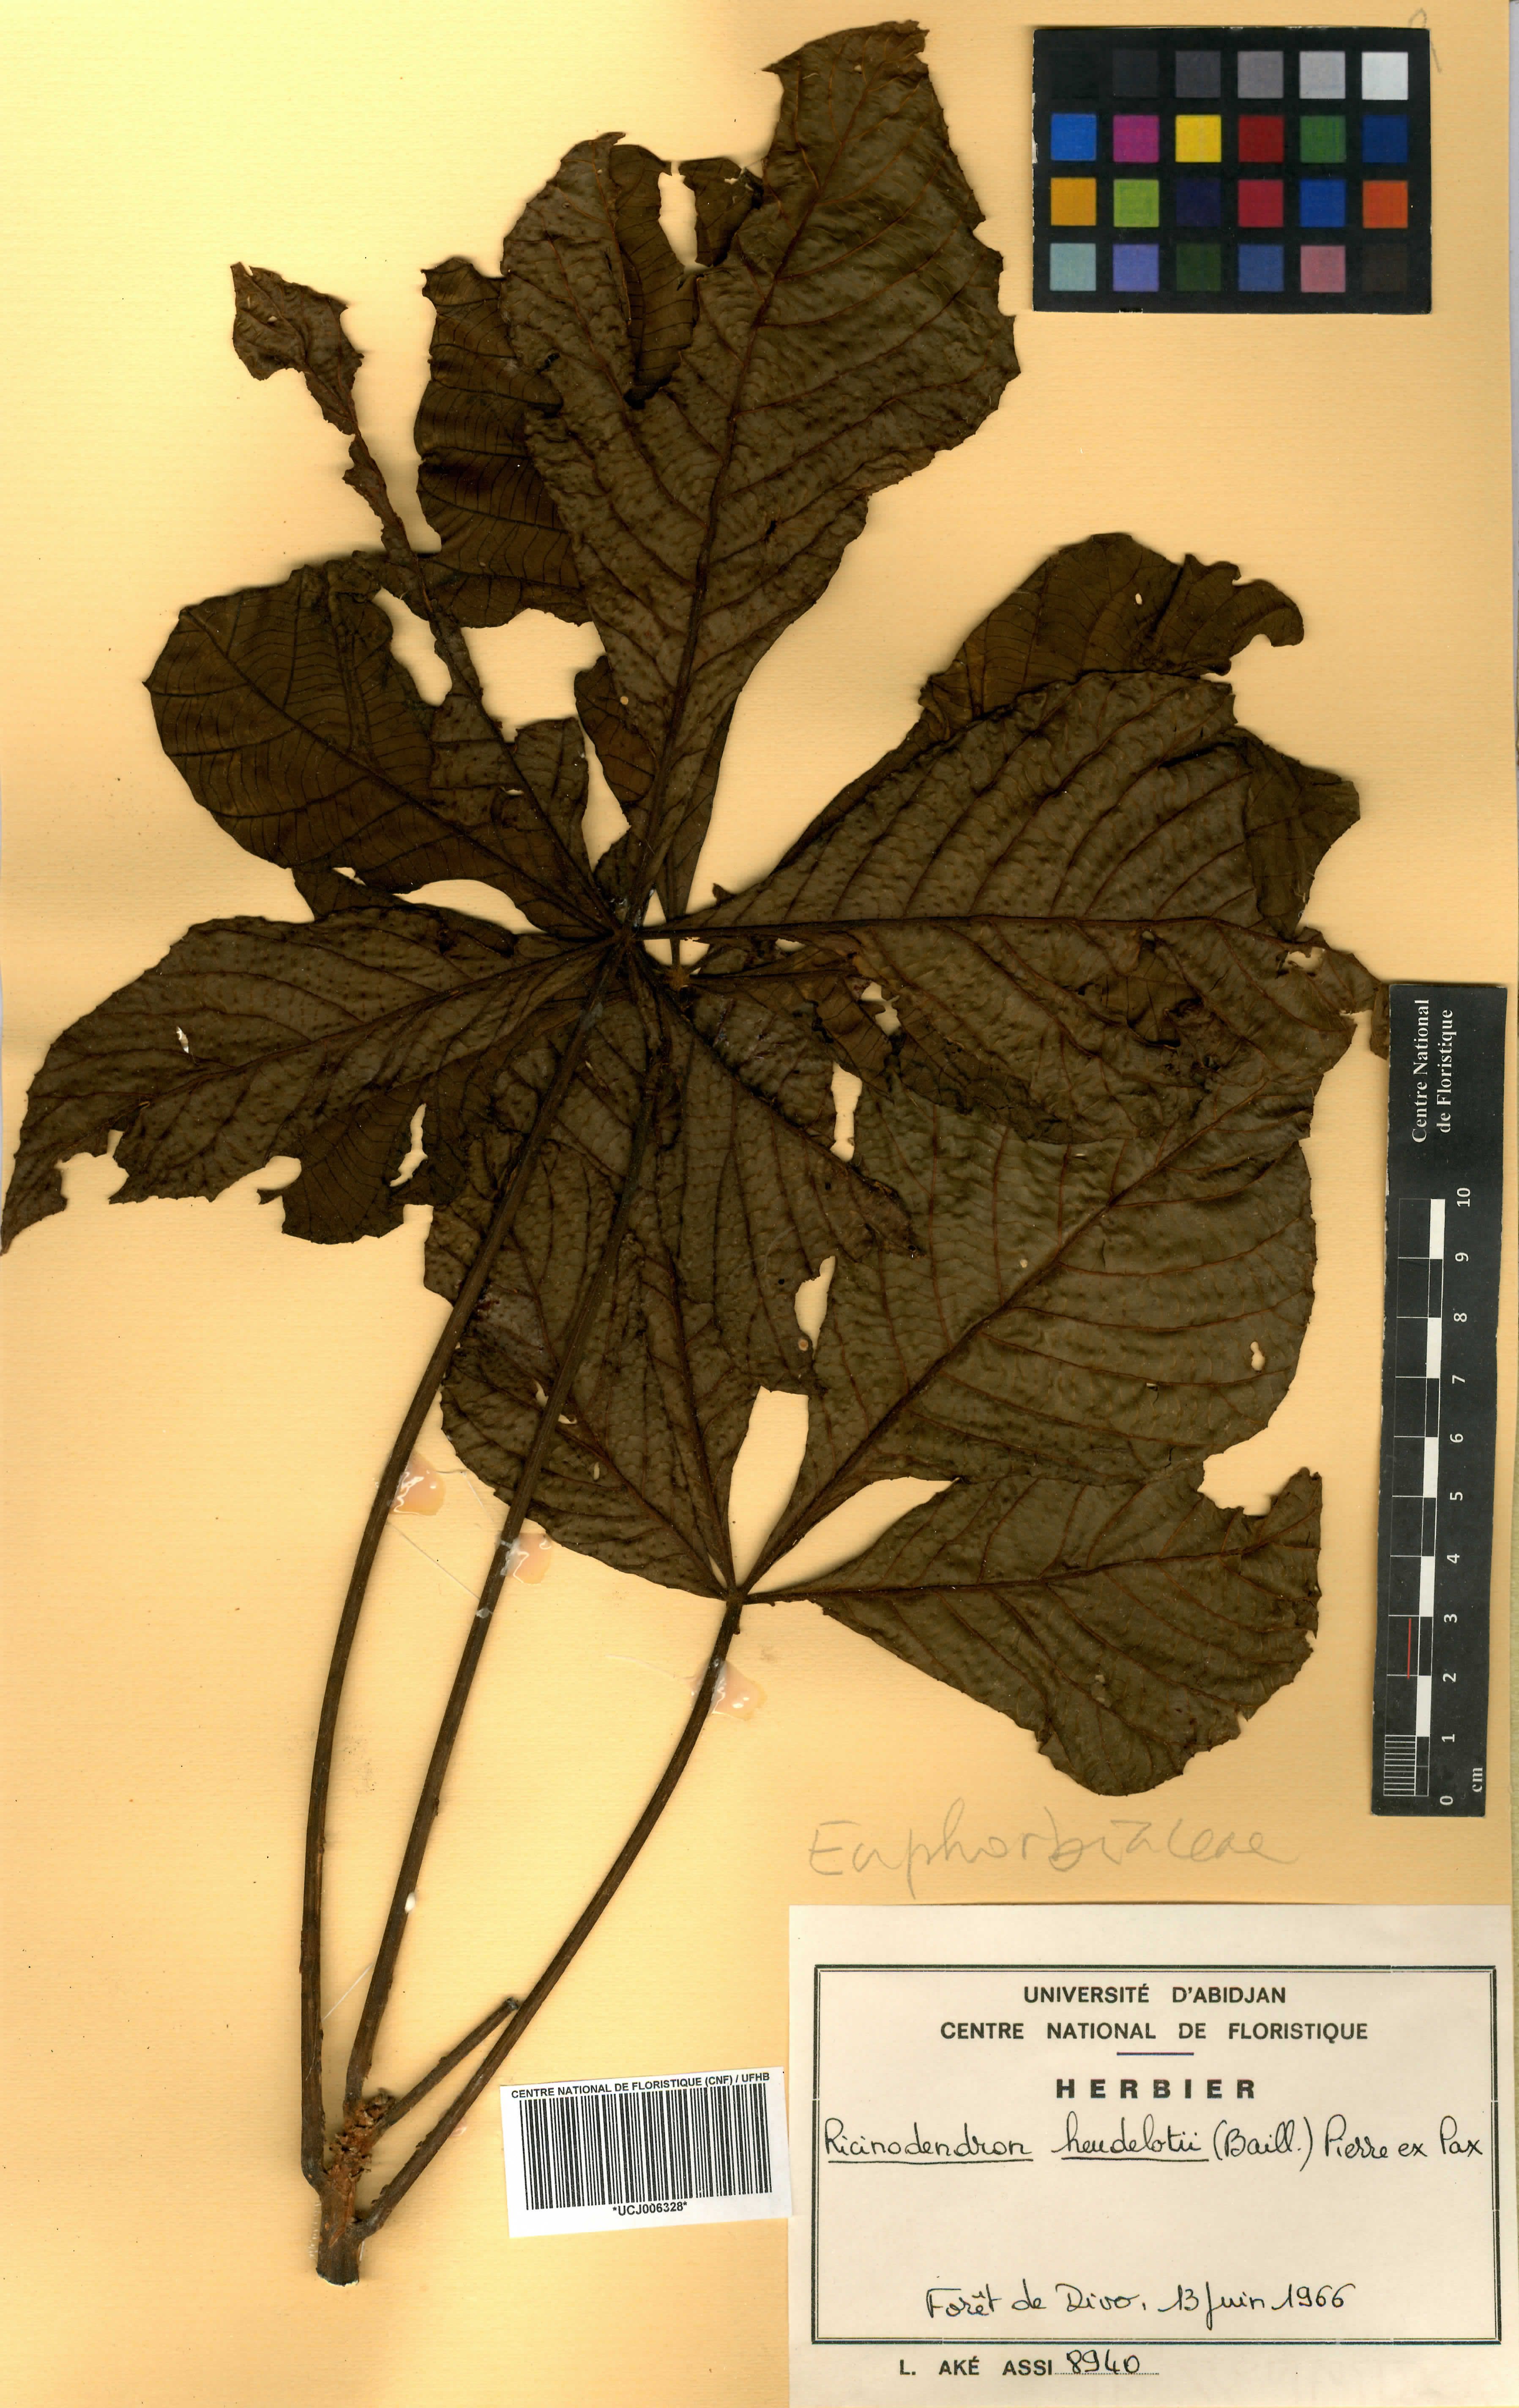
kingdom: Plantae
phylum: Tracheophyta
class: Magnoliopsida
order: Malpighiales
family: Euphorbiaceae
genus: Ricinodendron
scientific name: Ricinodendron heudelotii
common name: African nut-tree
